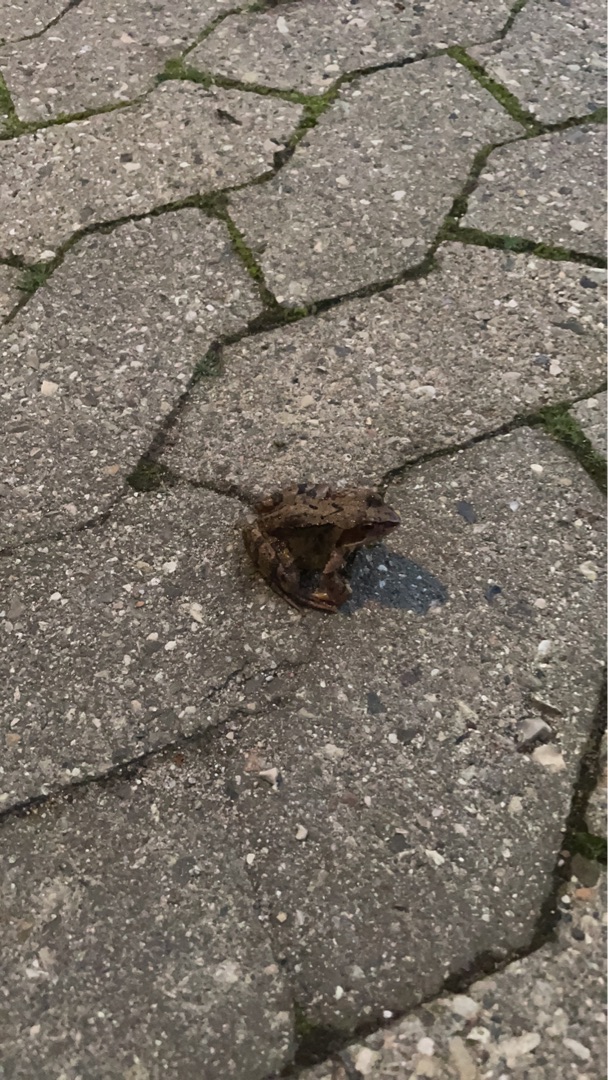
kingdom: Animalia
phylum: Chordata
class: Amphibia
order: Anura
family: Ranidae
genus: Rana
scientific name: Rana temporaria
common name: Butsnudet frø
